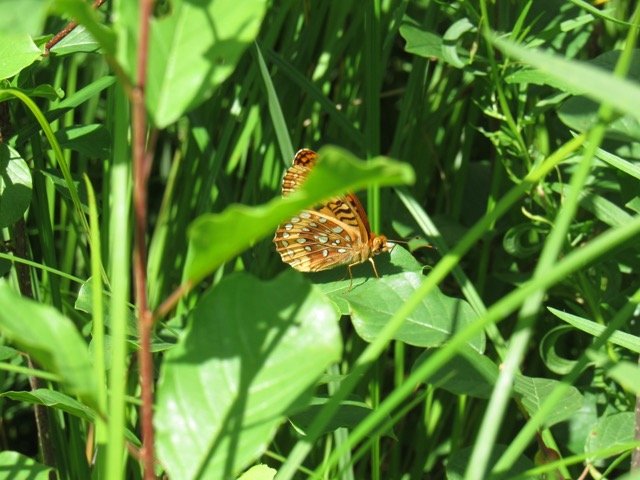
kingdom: Animalia
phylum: Arthropoda
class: Insecta
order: Lepidoptera
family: Nymphalidae
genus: Speyeria
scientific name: Speyeria cybele
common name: Great Spangled Fritillary
